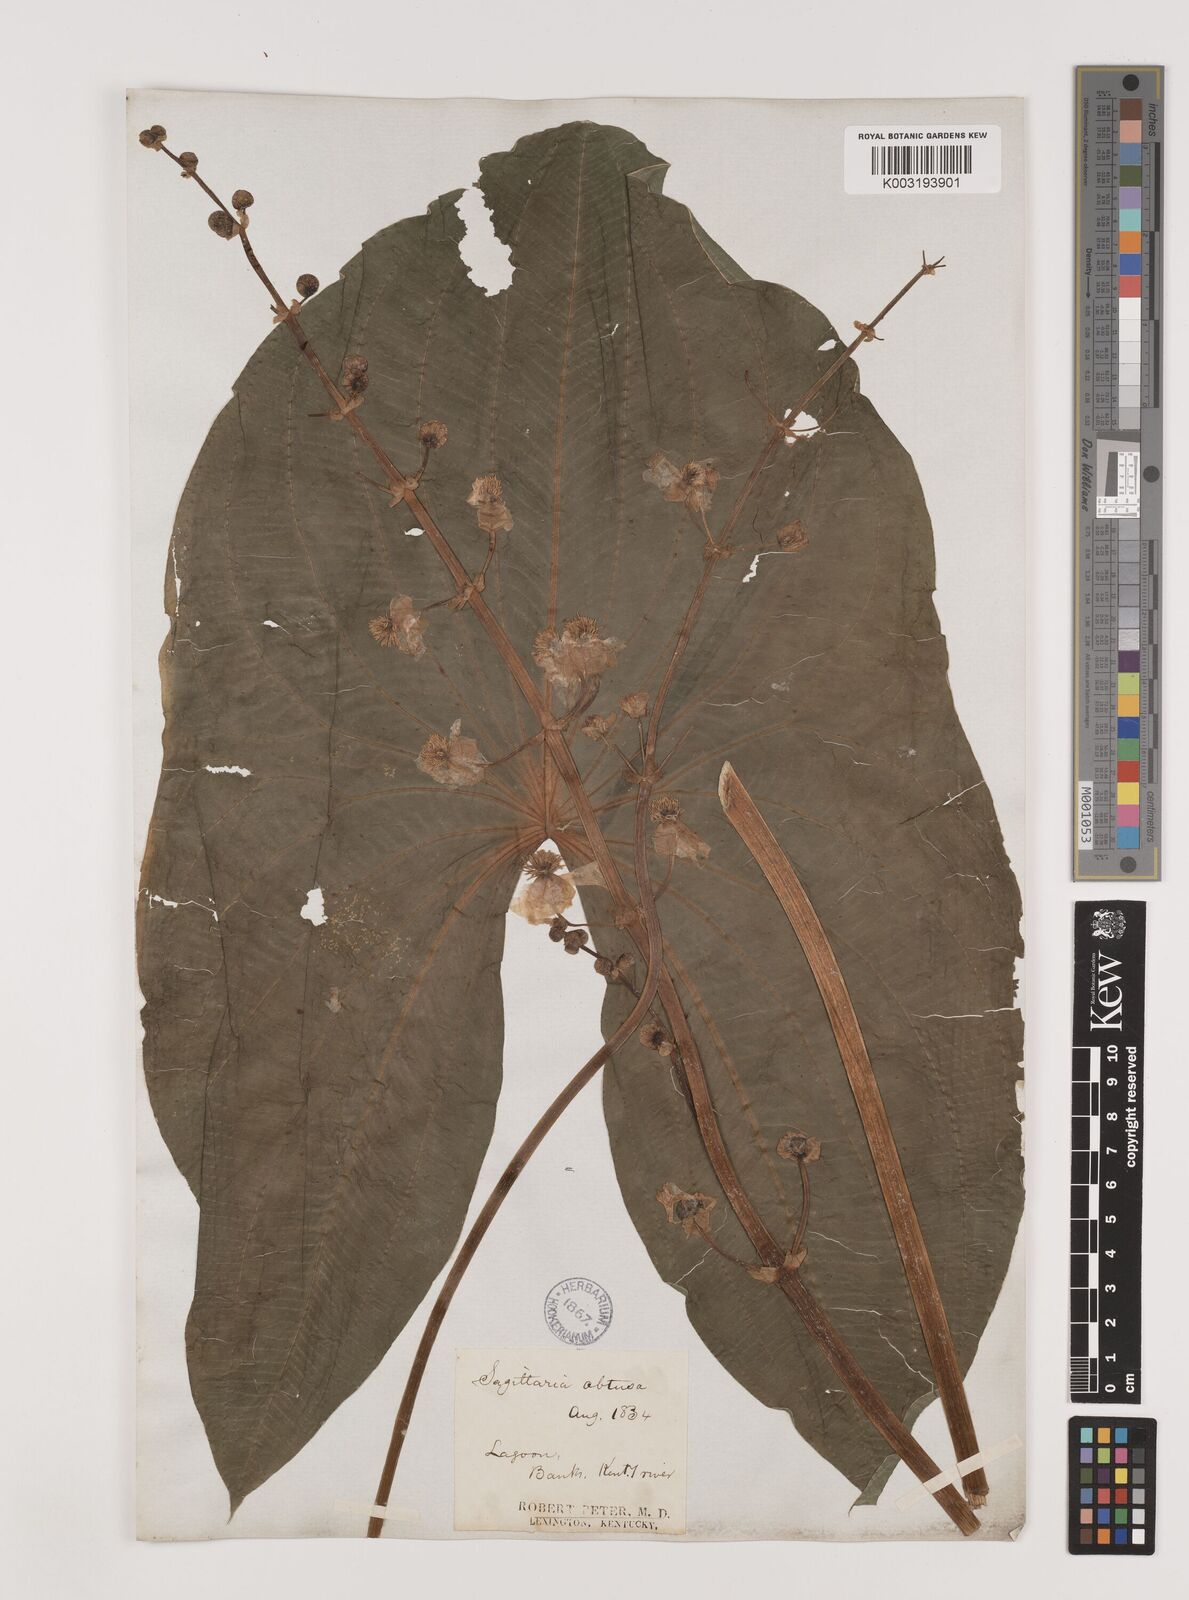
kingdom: Plantae
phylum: Tracheophyta
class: Liliopsida
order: Alismatales
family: Alismataceae
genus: Sagittaria
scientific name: Sagittaria latifolia
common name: Duck-potato
